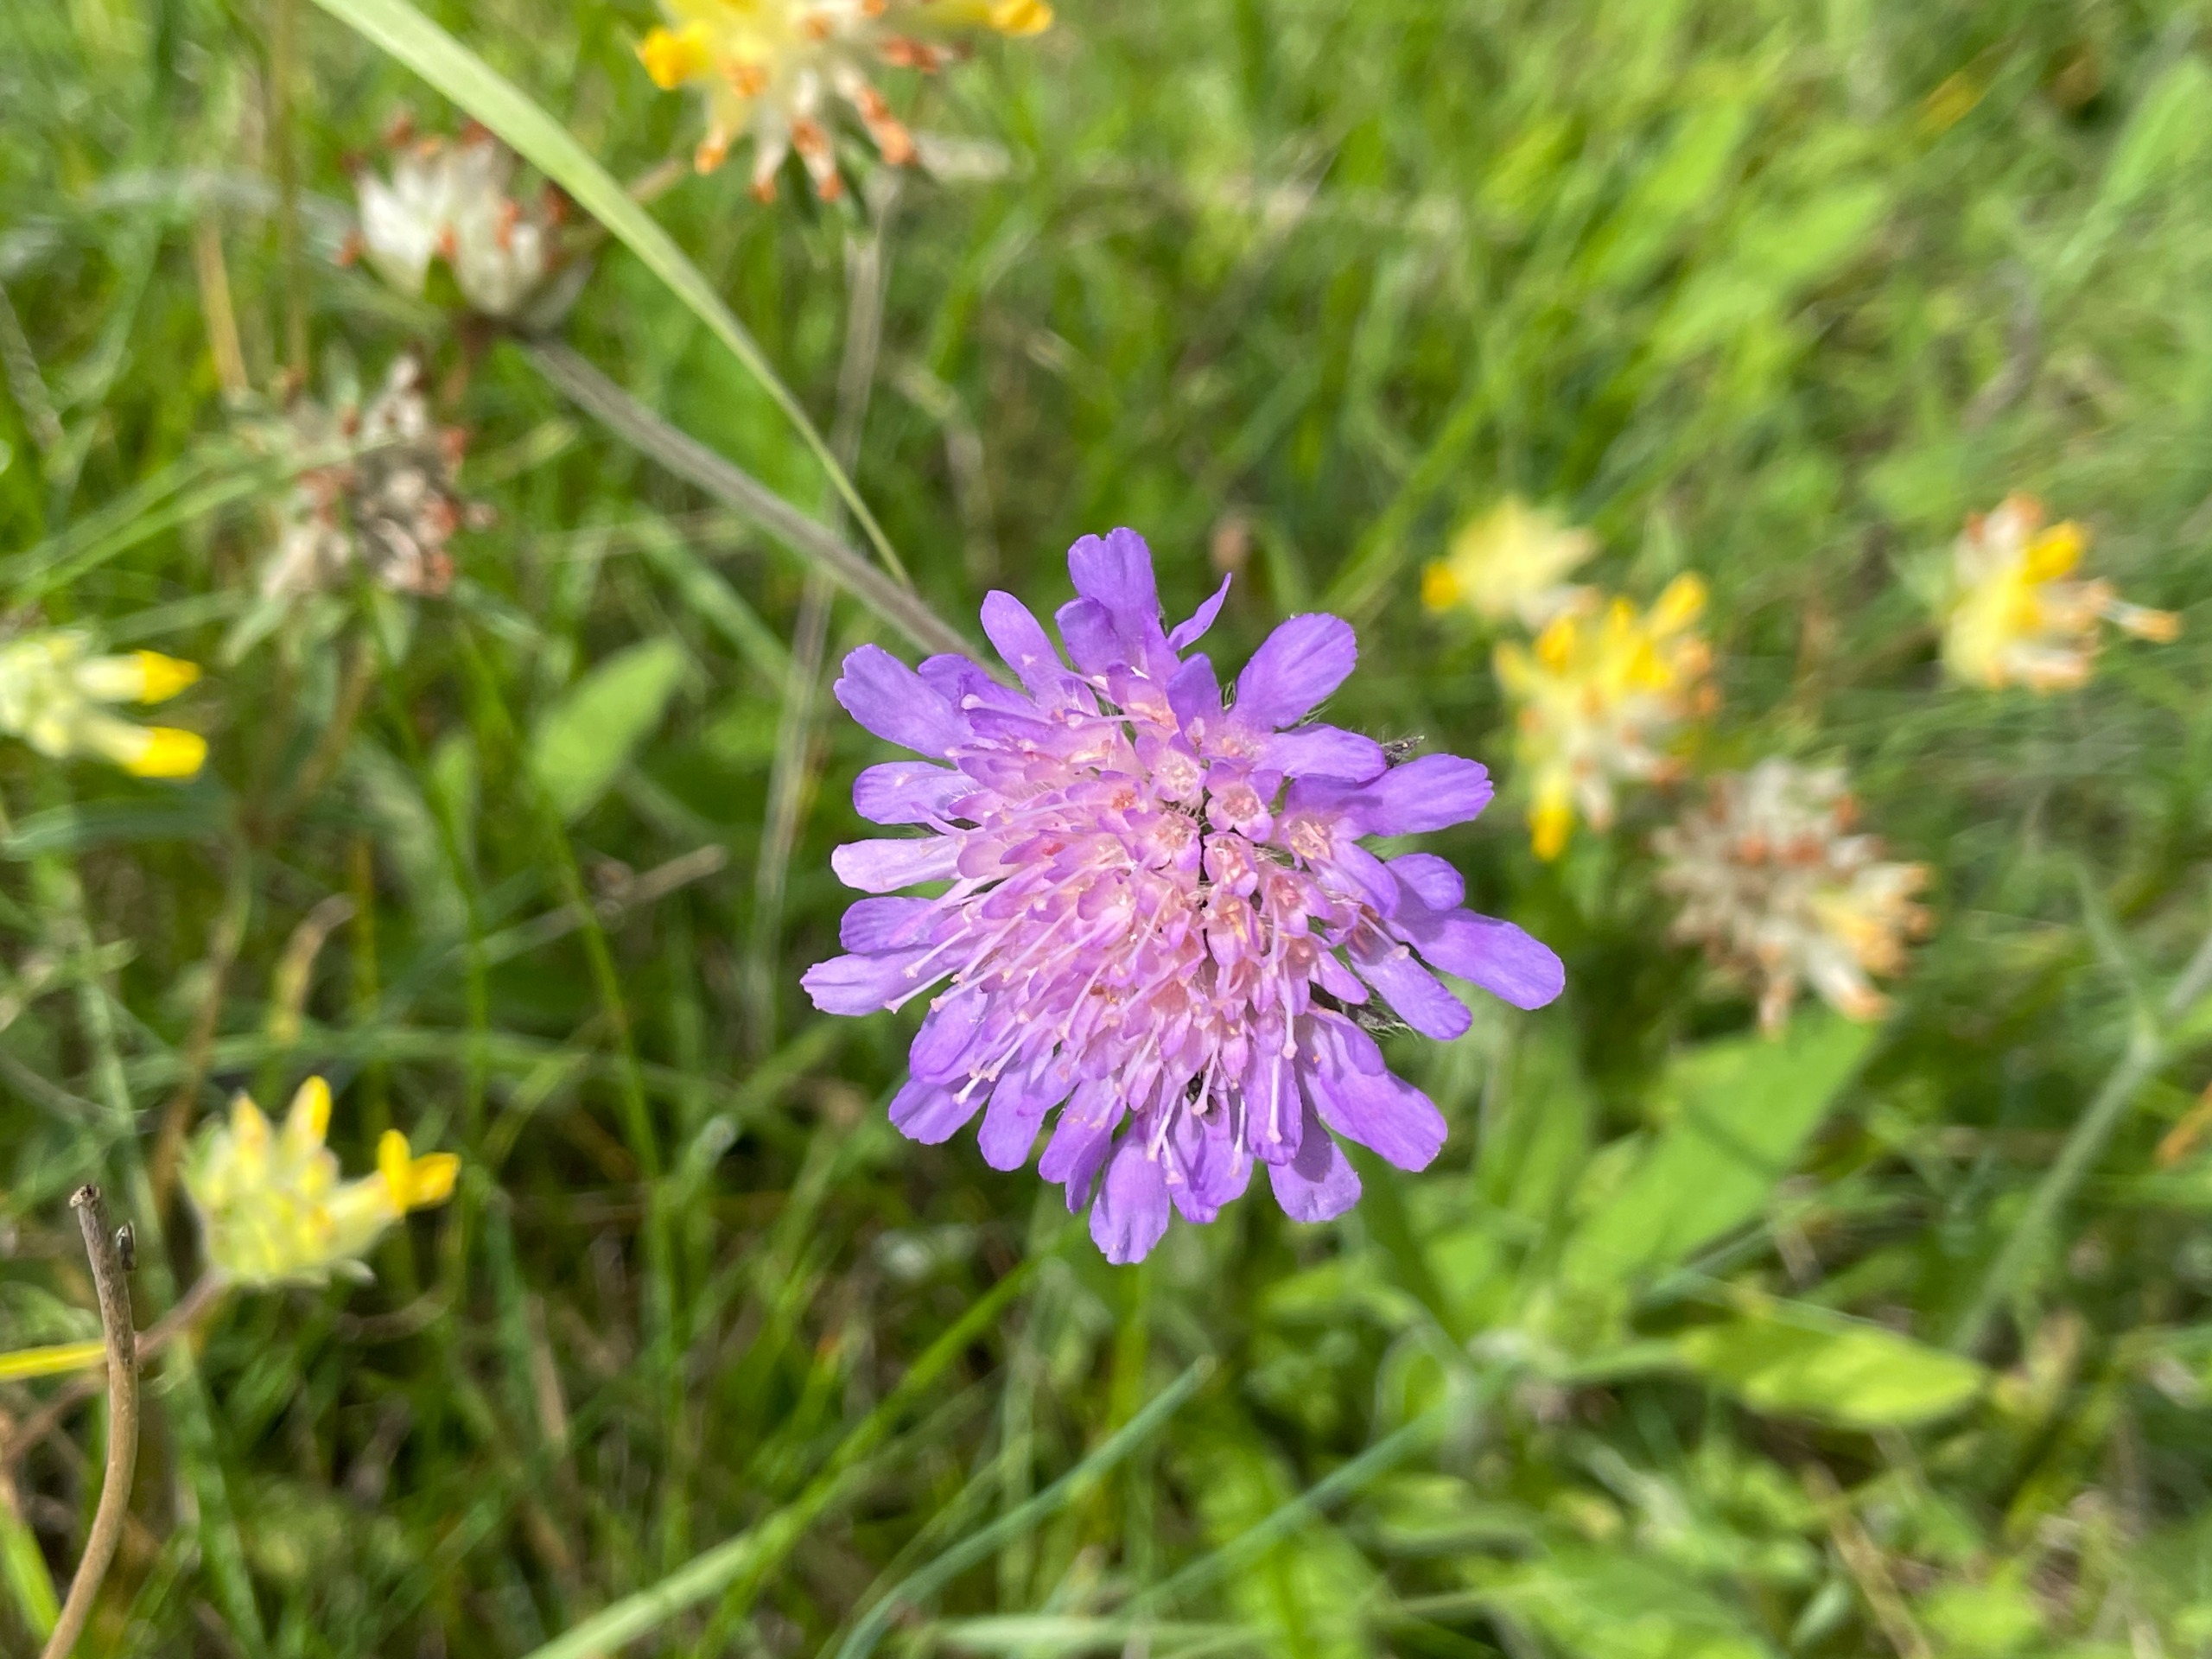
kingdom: Plantae
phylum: Tracheophyta
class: Magnoliopsida
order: Dipsacales
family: Caprifoliaceae
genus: Knautia
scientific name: Knautia arvensis
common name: Blåhat
